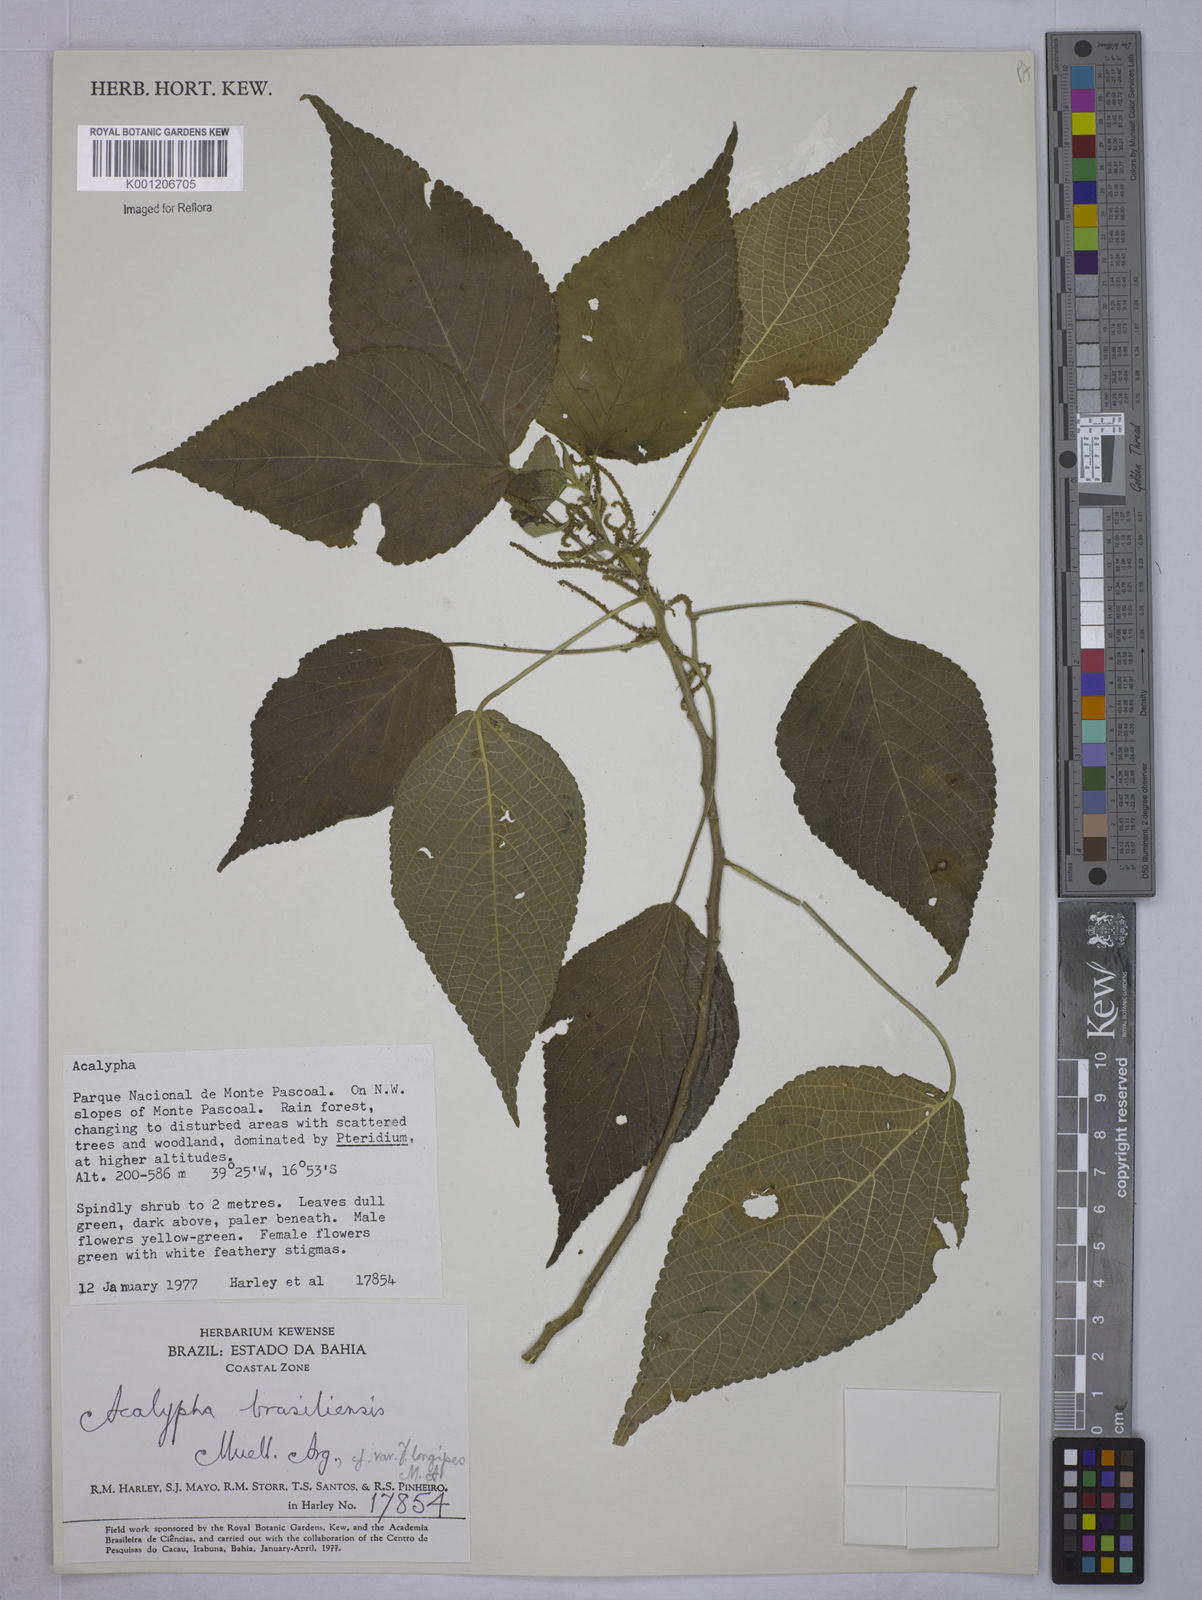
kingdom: Plantae
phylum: Tracheophyta
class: Magnoliopsida
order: Malpighiales
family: Euphorbiaceae
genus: Acalypha
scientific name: Acalypha
